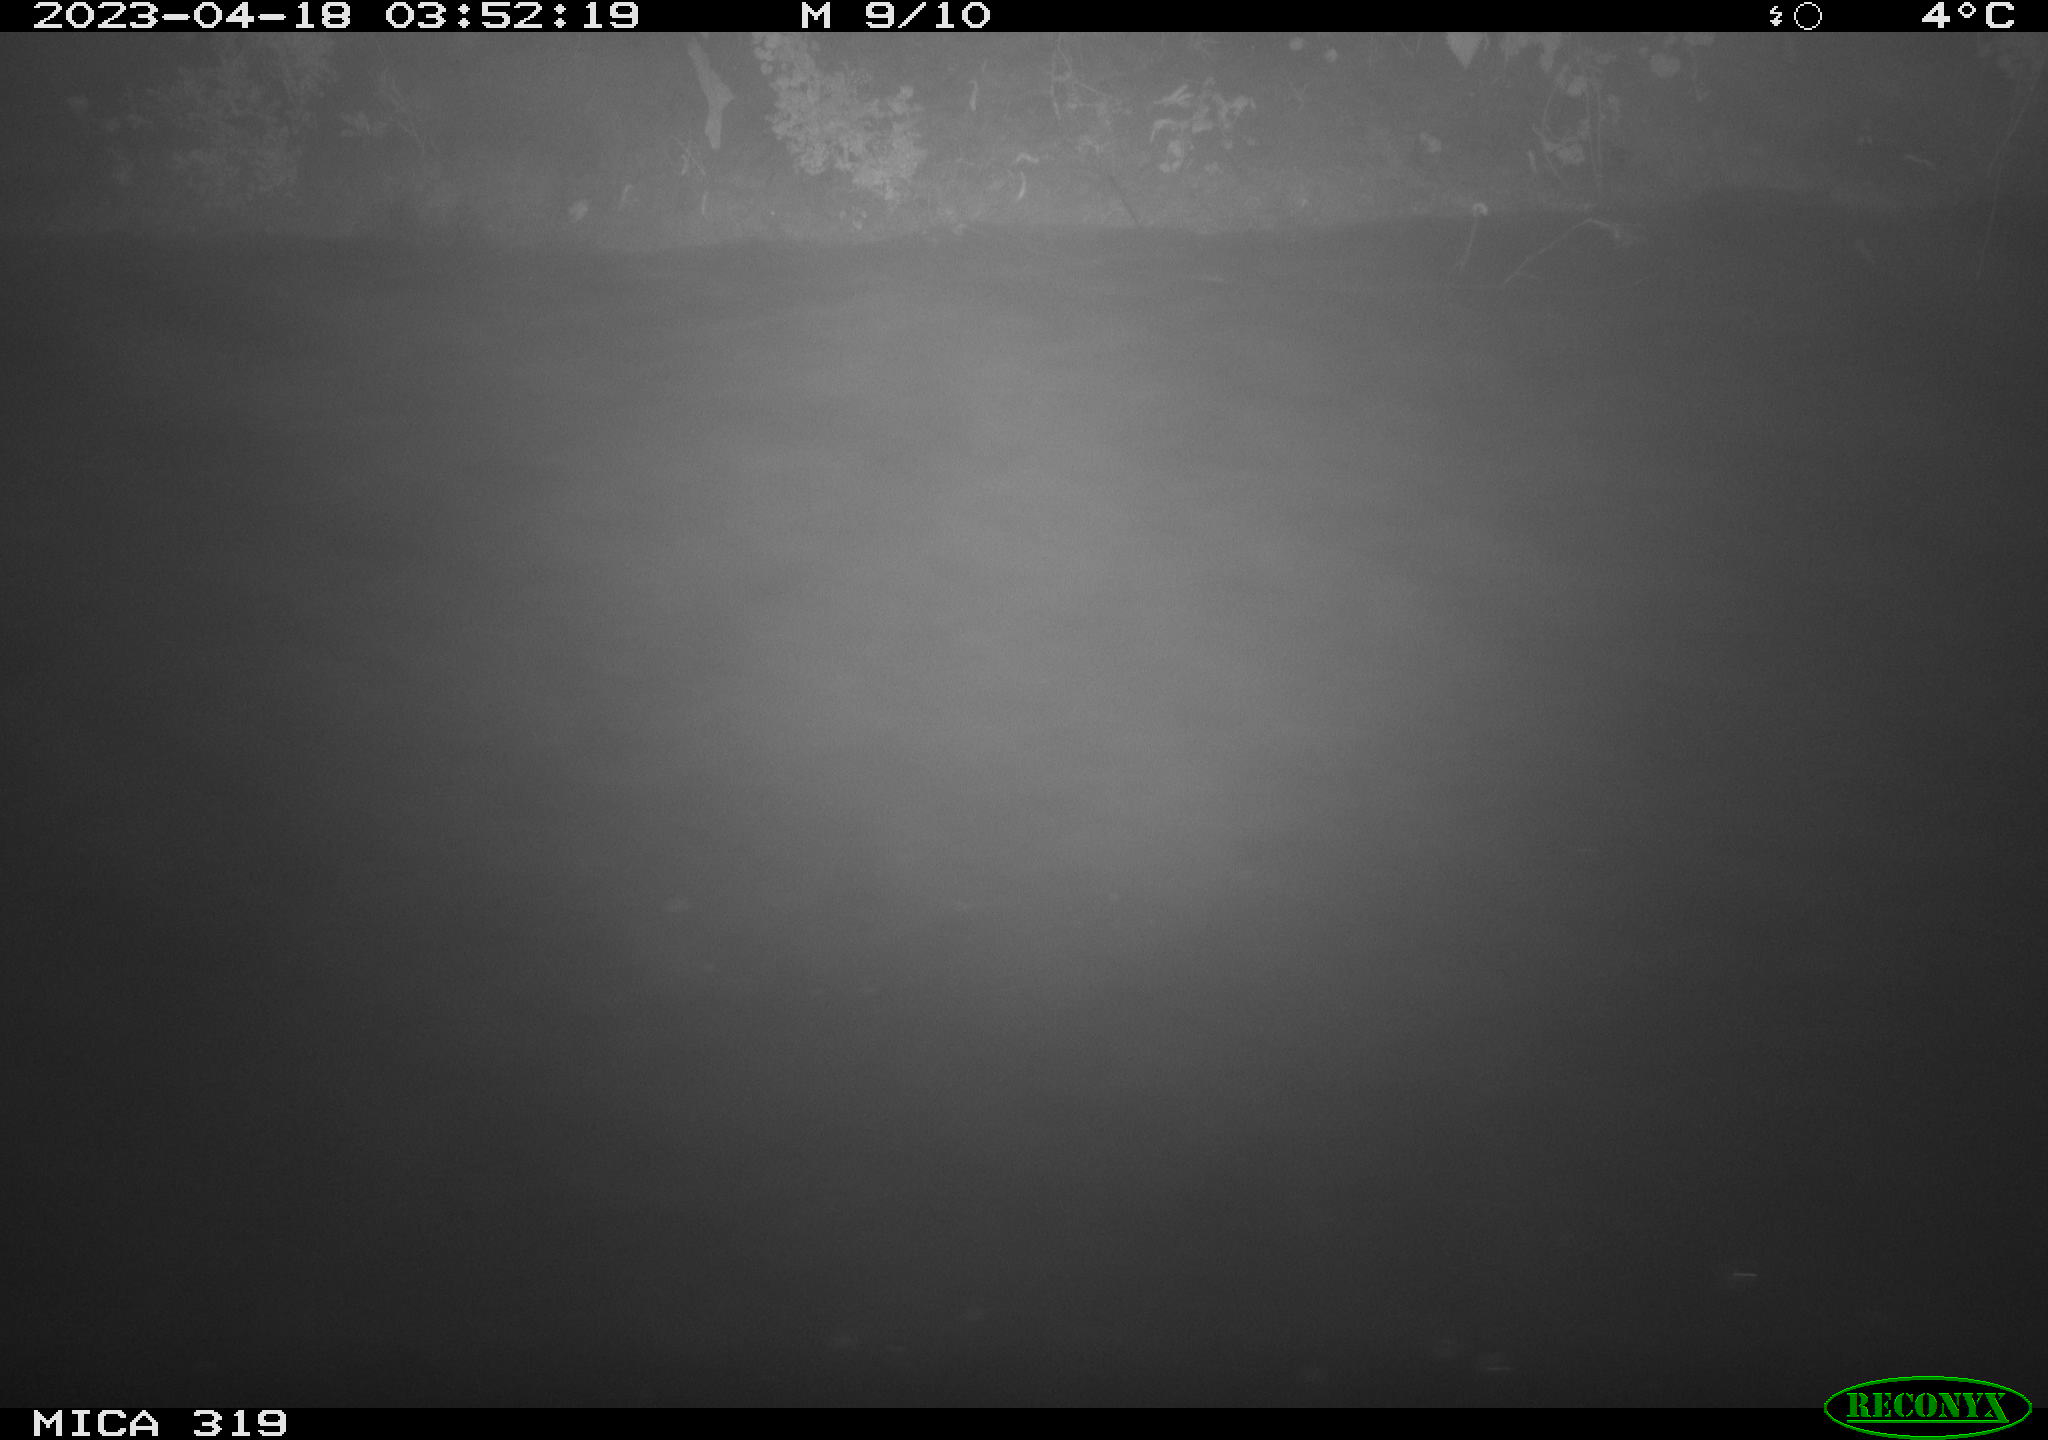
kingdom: Animalia
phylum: Chordata
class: Aves
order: Anseriformes
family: Anatidae
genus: Anas
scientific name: Anas
